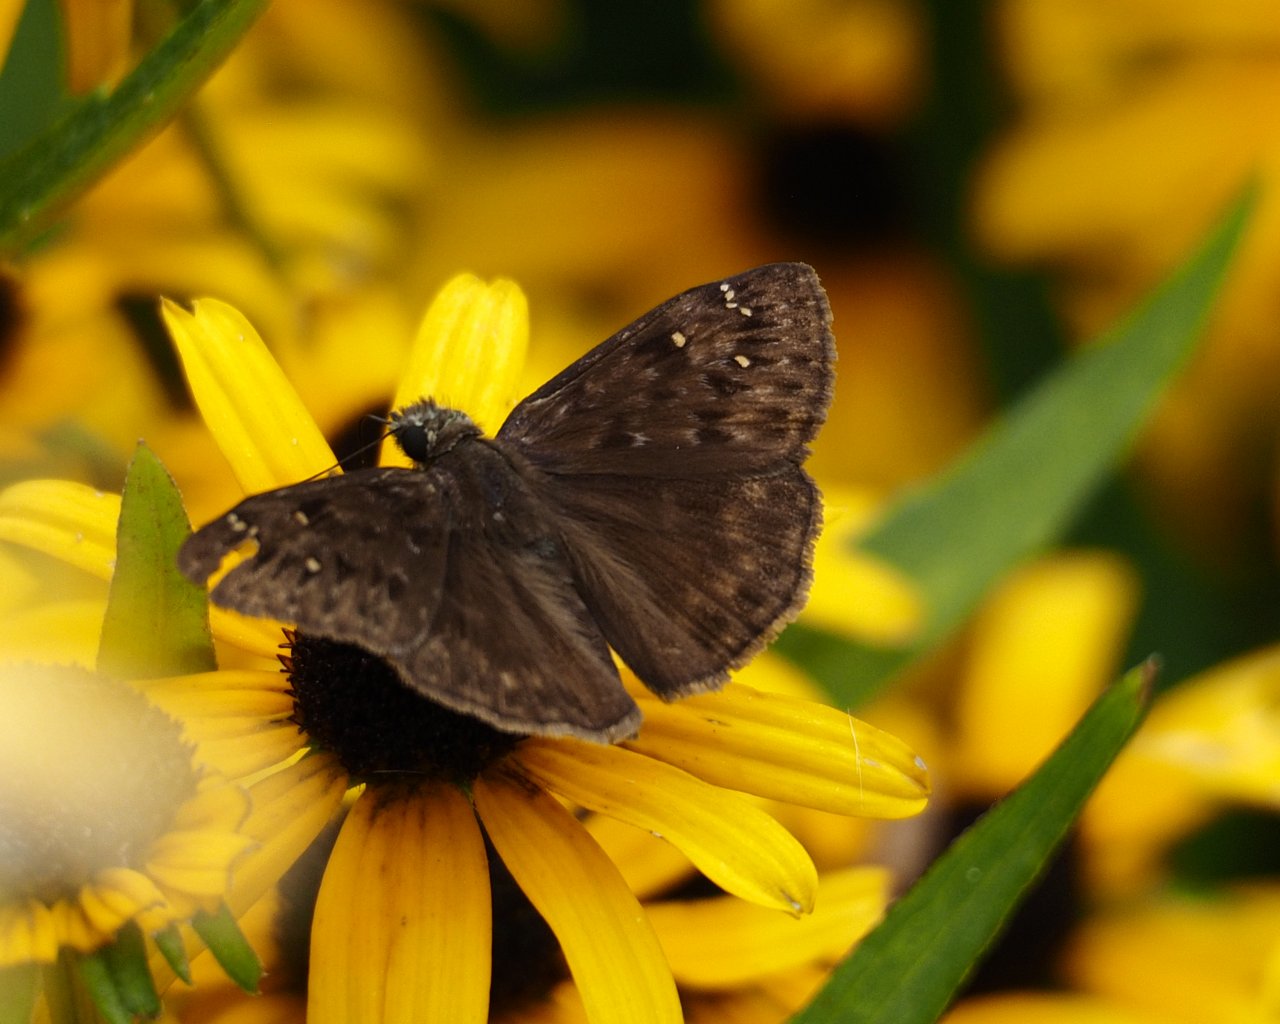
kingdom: Animalia
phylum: Arthropoda
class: Insecta
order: Lepidoptera
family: Hesperiidae
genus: Gesta
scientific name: Gesta
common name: Horace's Duskywing
